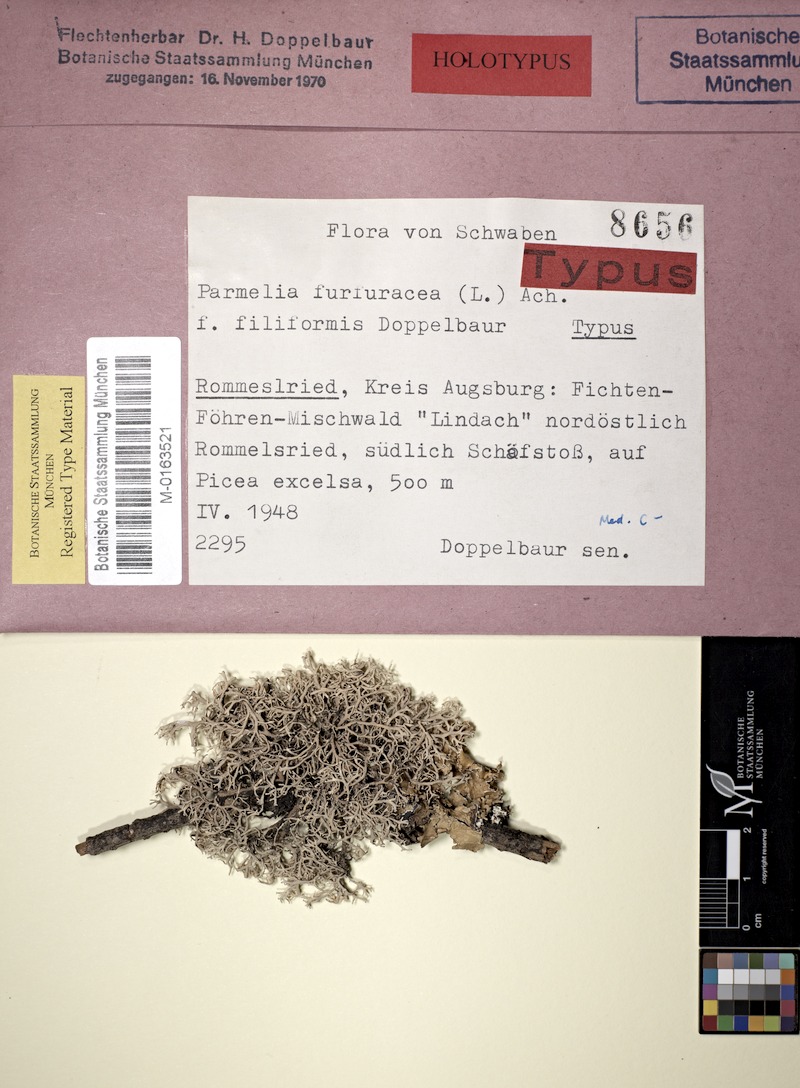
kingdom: Fungi
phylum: Ascomycota
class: Lecanoromycetes
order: Lecanorales
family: Parmeliaceae
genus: Pseudevernia
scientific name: Pseudevernia furfuracea
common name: Tree moss
